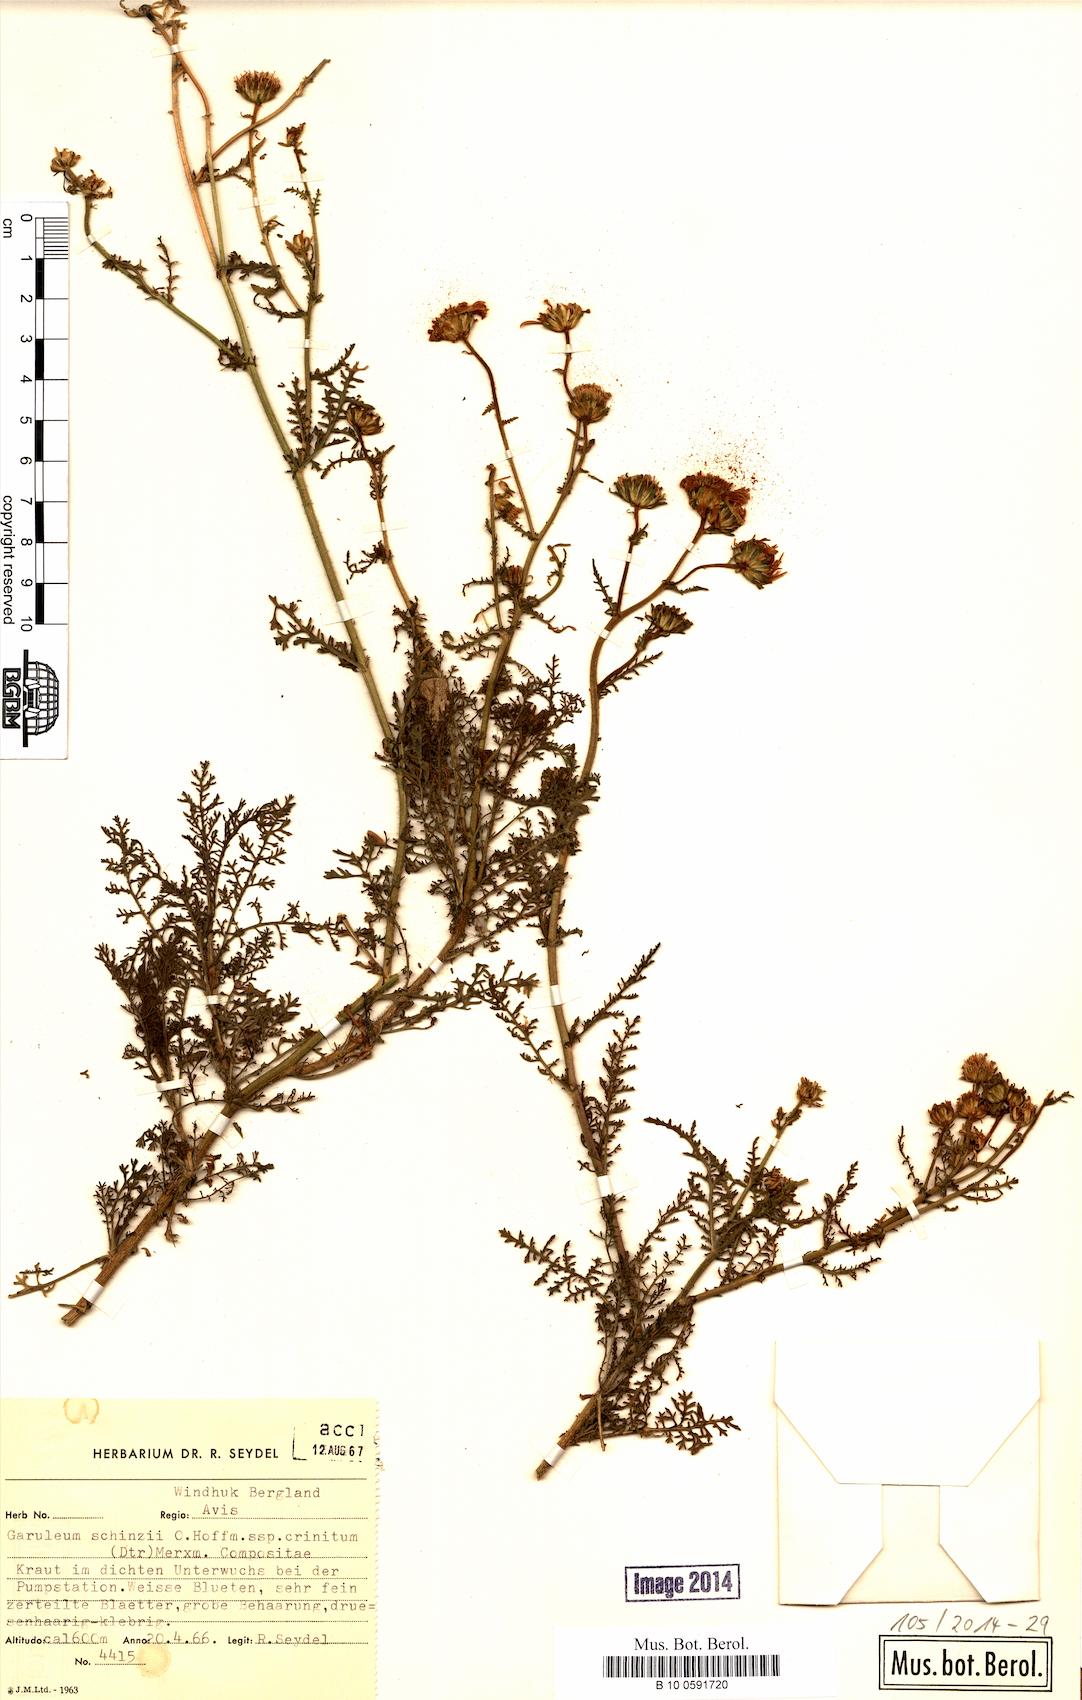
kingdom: Plantae
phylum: Tracheophyta
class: Magnoliopsida
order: Asterales
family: Asteraceae
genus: Garuleum
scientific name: Garuleum schinzii
